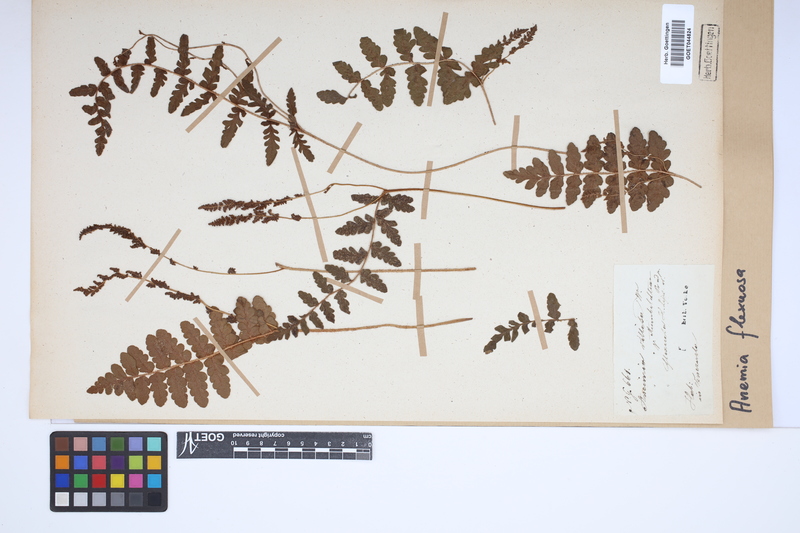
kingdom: Plantae
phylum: Tracheophyta
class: Polypodiopsida
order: Schizaeales
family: Anemiaceae
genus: Anemia
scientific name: Anemia flexuosa
